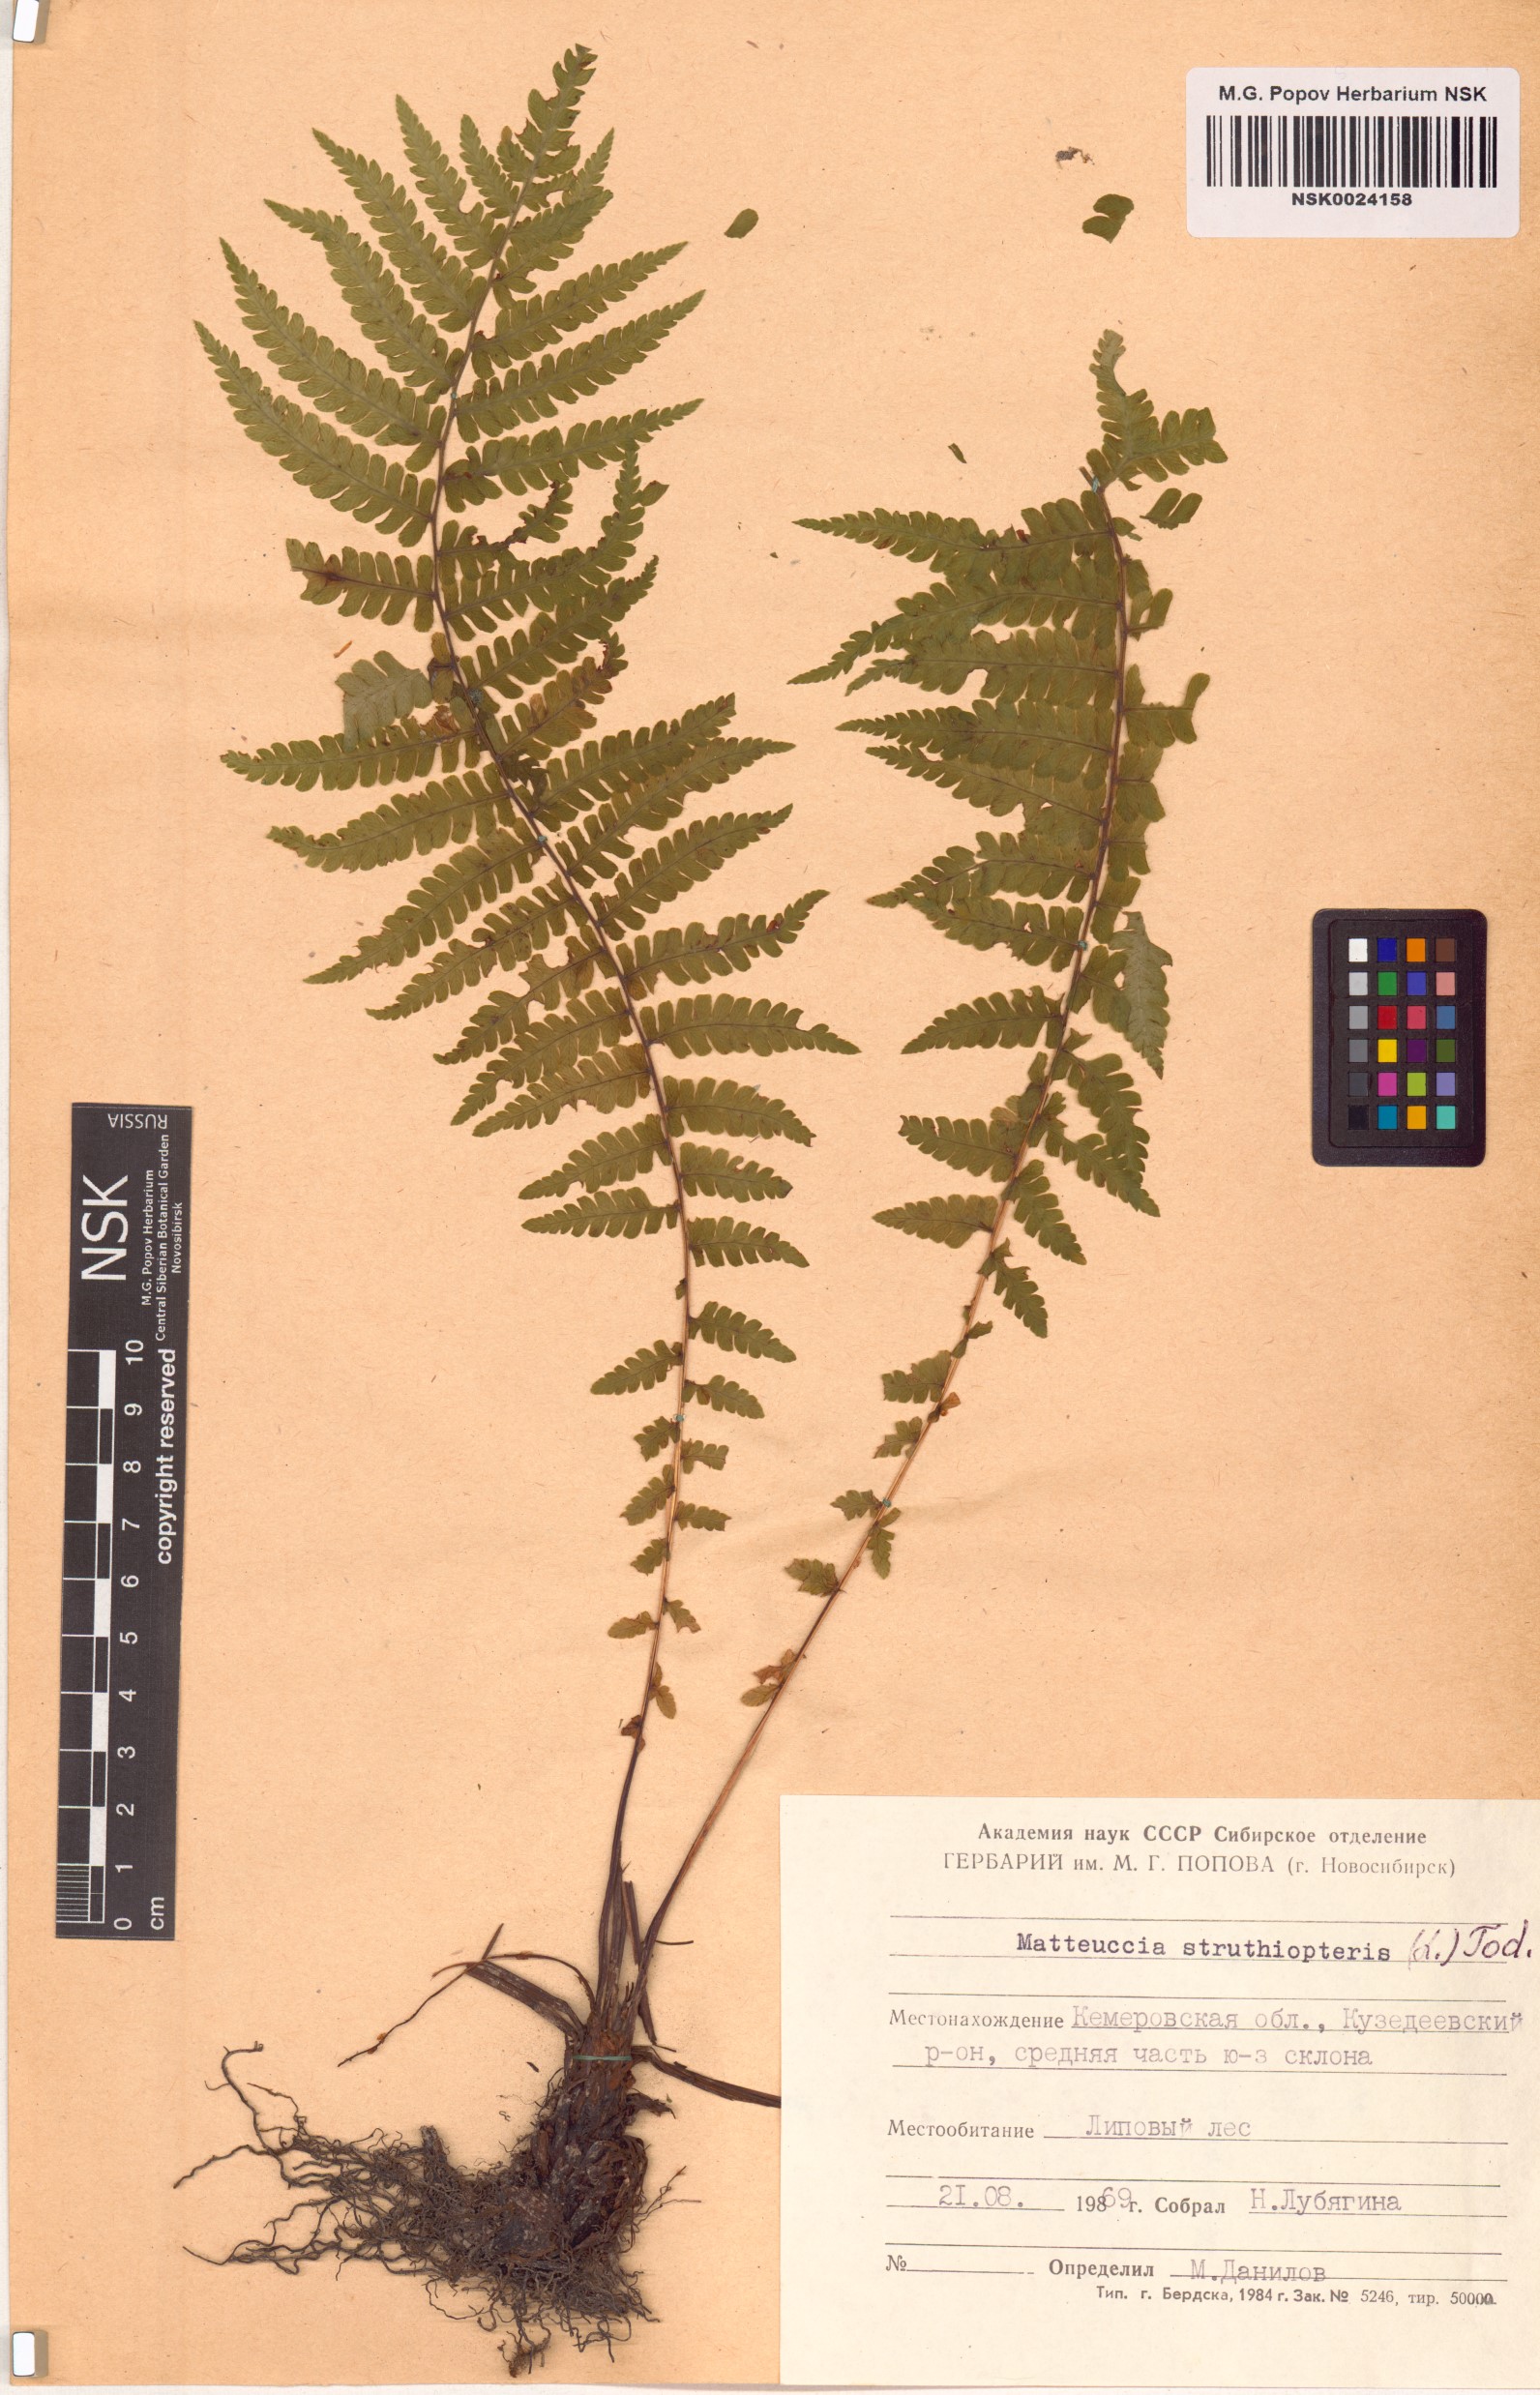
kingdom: Plantae
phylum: Tracheophyta
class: Polypodiopsida
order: Polypodiales
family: Onocleaceae
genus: Matteuccia
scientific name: Matteuccia struthiopteris
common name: Ostrich fern
